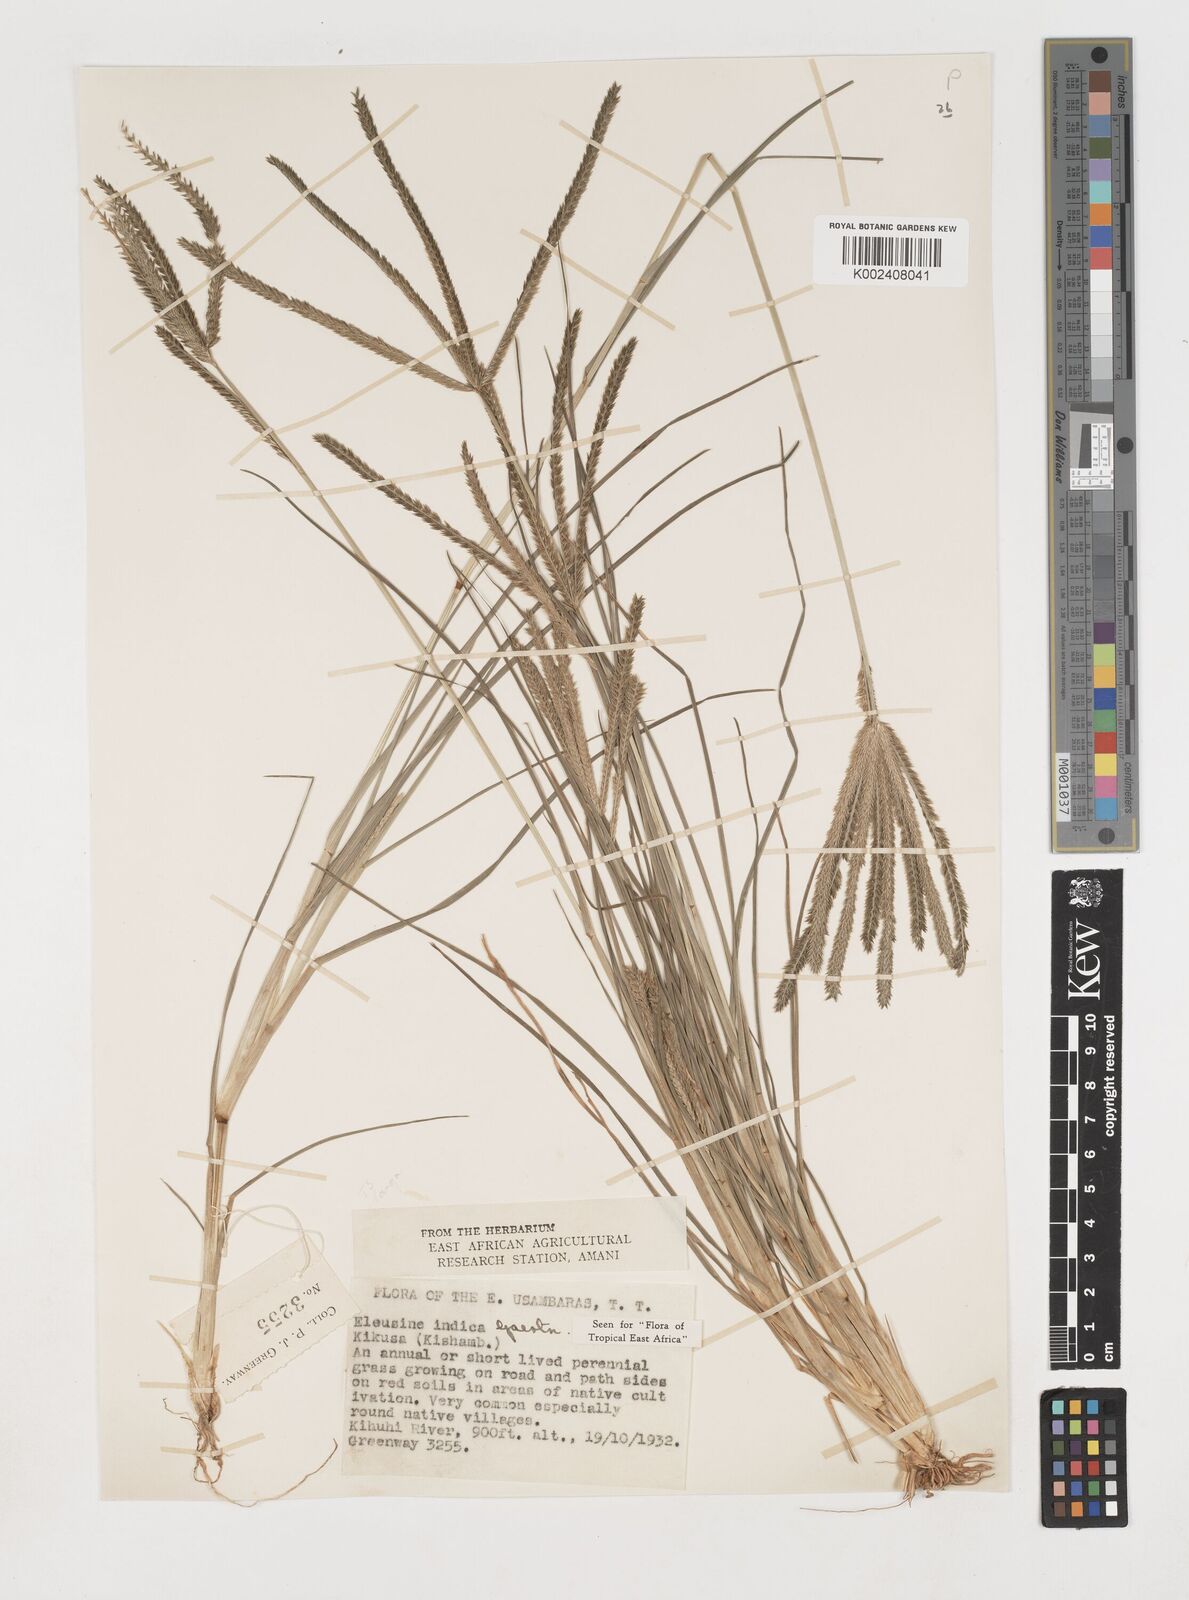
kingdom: Plantae
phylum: Tracheophyta
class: Liliopsida
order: Poales
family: Poaceae
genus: Eleusine
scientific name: Eleusine indica
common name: Yard-grass
